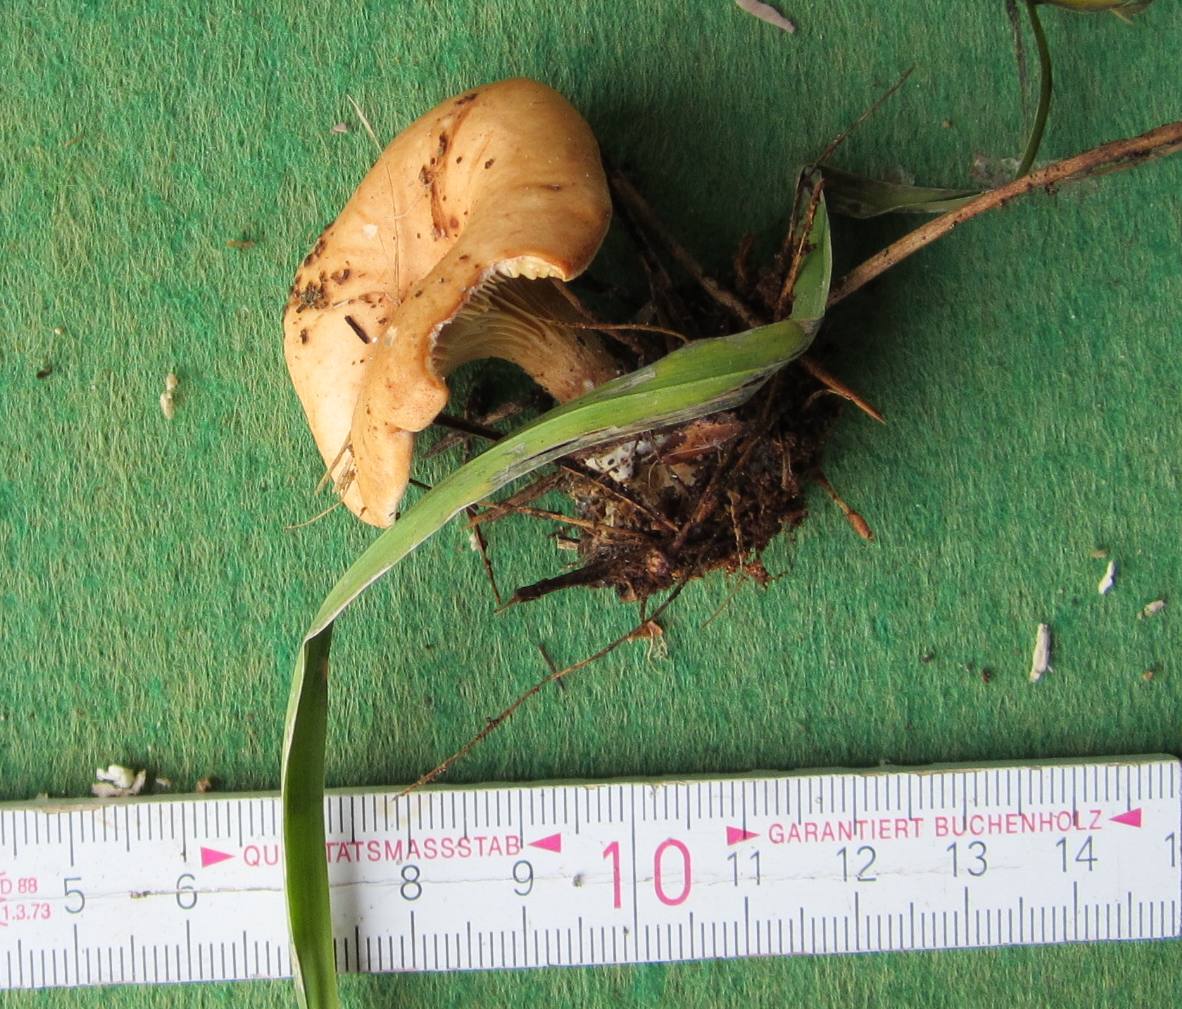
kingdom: Fungi
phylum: Basidiomycota
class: Agaricomycetes
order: Agaricales
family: Tricholomataceae
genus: Paralepista
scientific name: Paralepista flaccida
